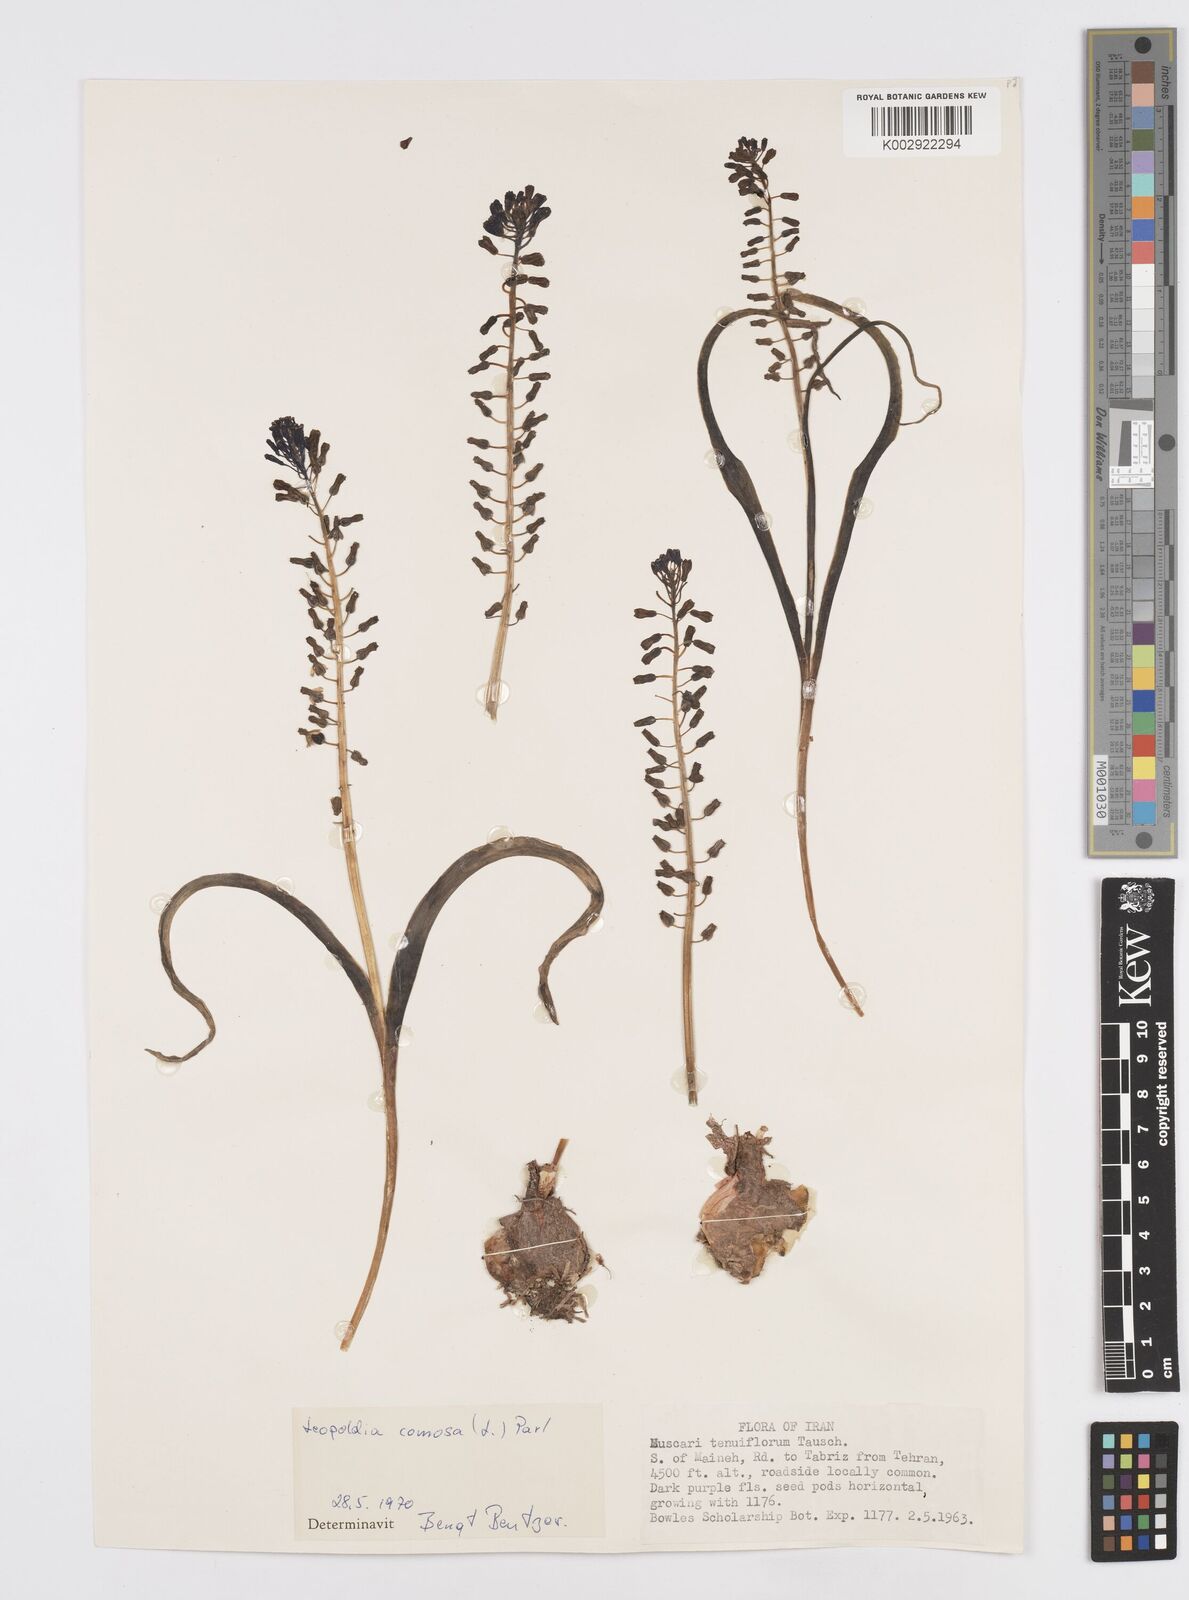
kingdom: Plantae
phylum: Tracheophyta
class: Liliopsida
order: Asparagales
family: Asparagaceae
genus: Muscari
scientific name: Muscari comosum
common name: Tassel hyacinth
